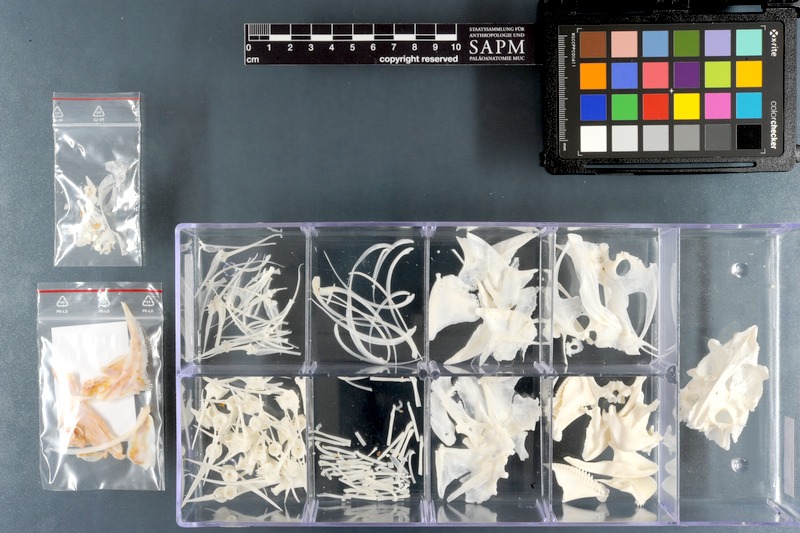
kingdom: Animalia
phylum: Chordata
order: Perciformes
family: Scaridae
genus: Chlorurus
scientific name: Chlorurus gibbus
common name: Heavybeak parrotfish
